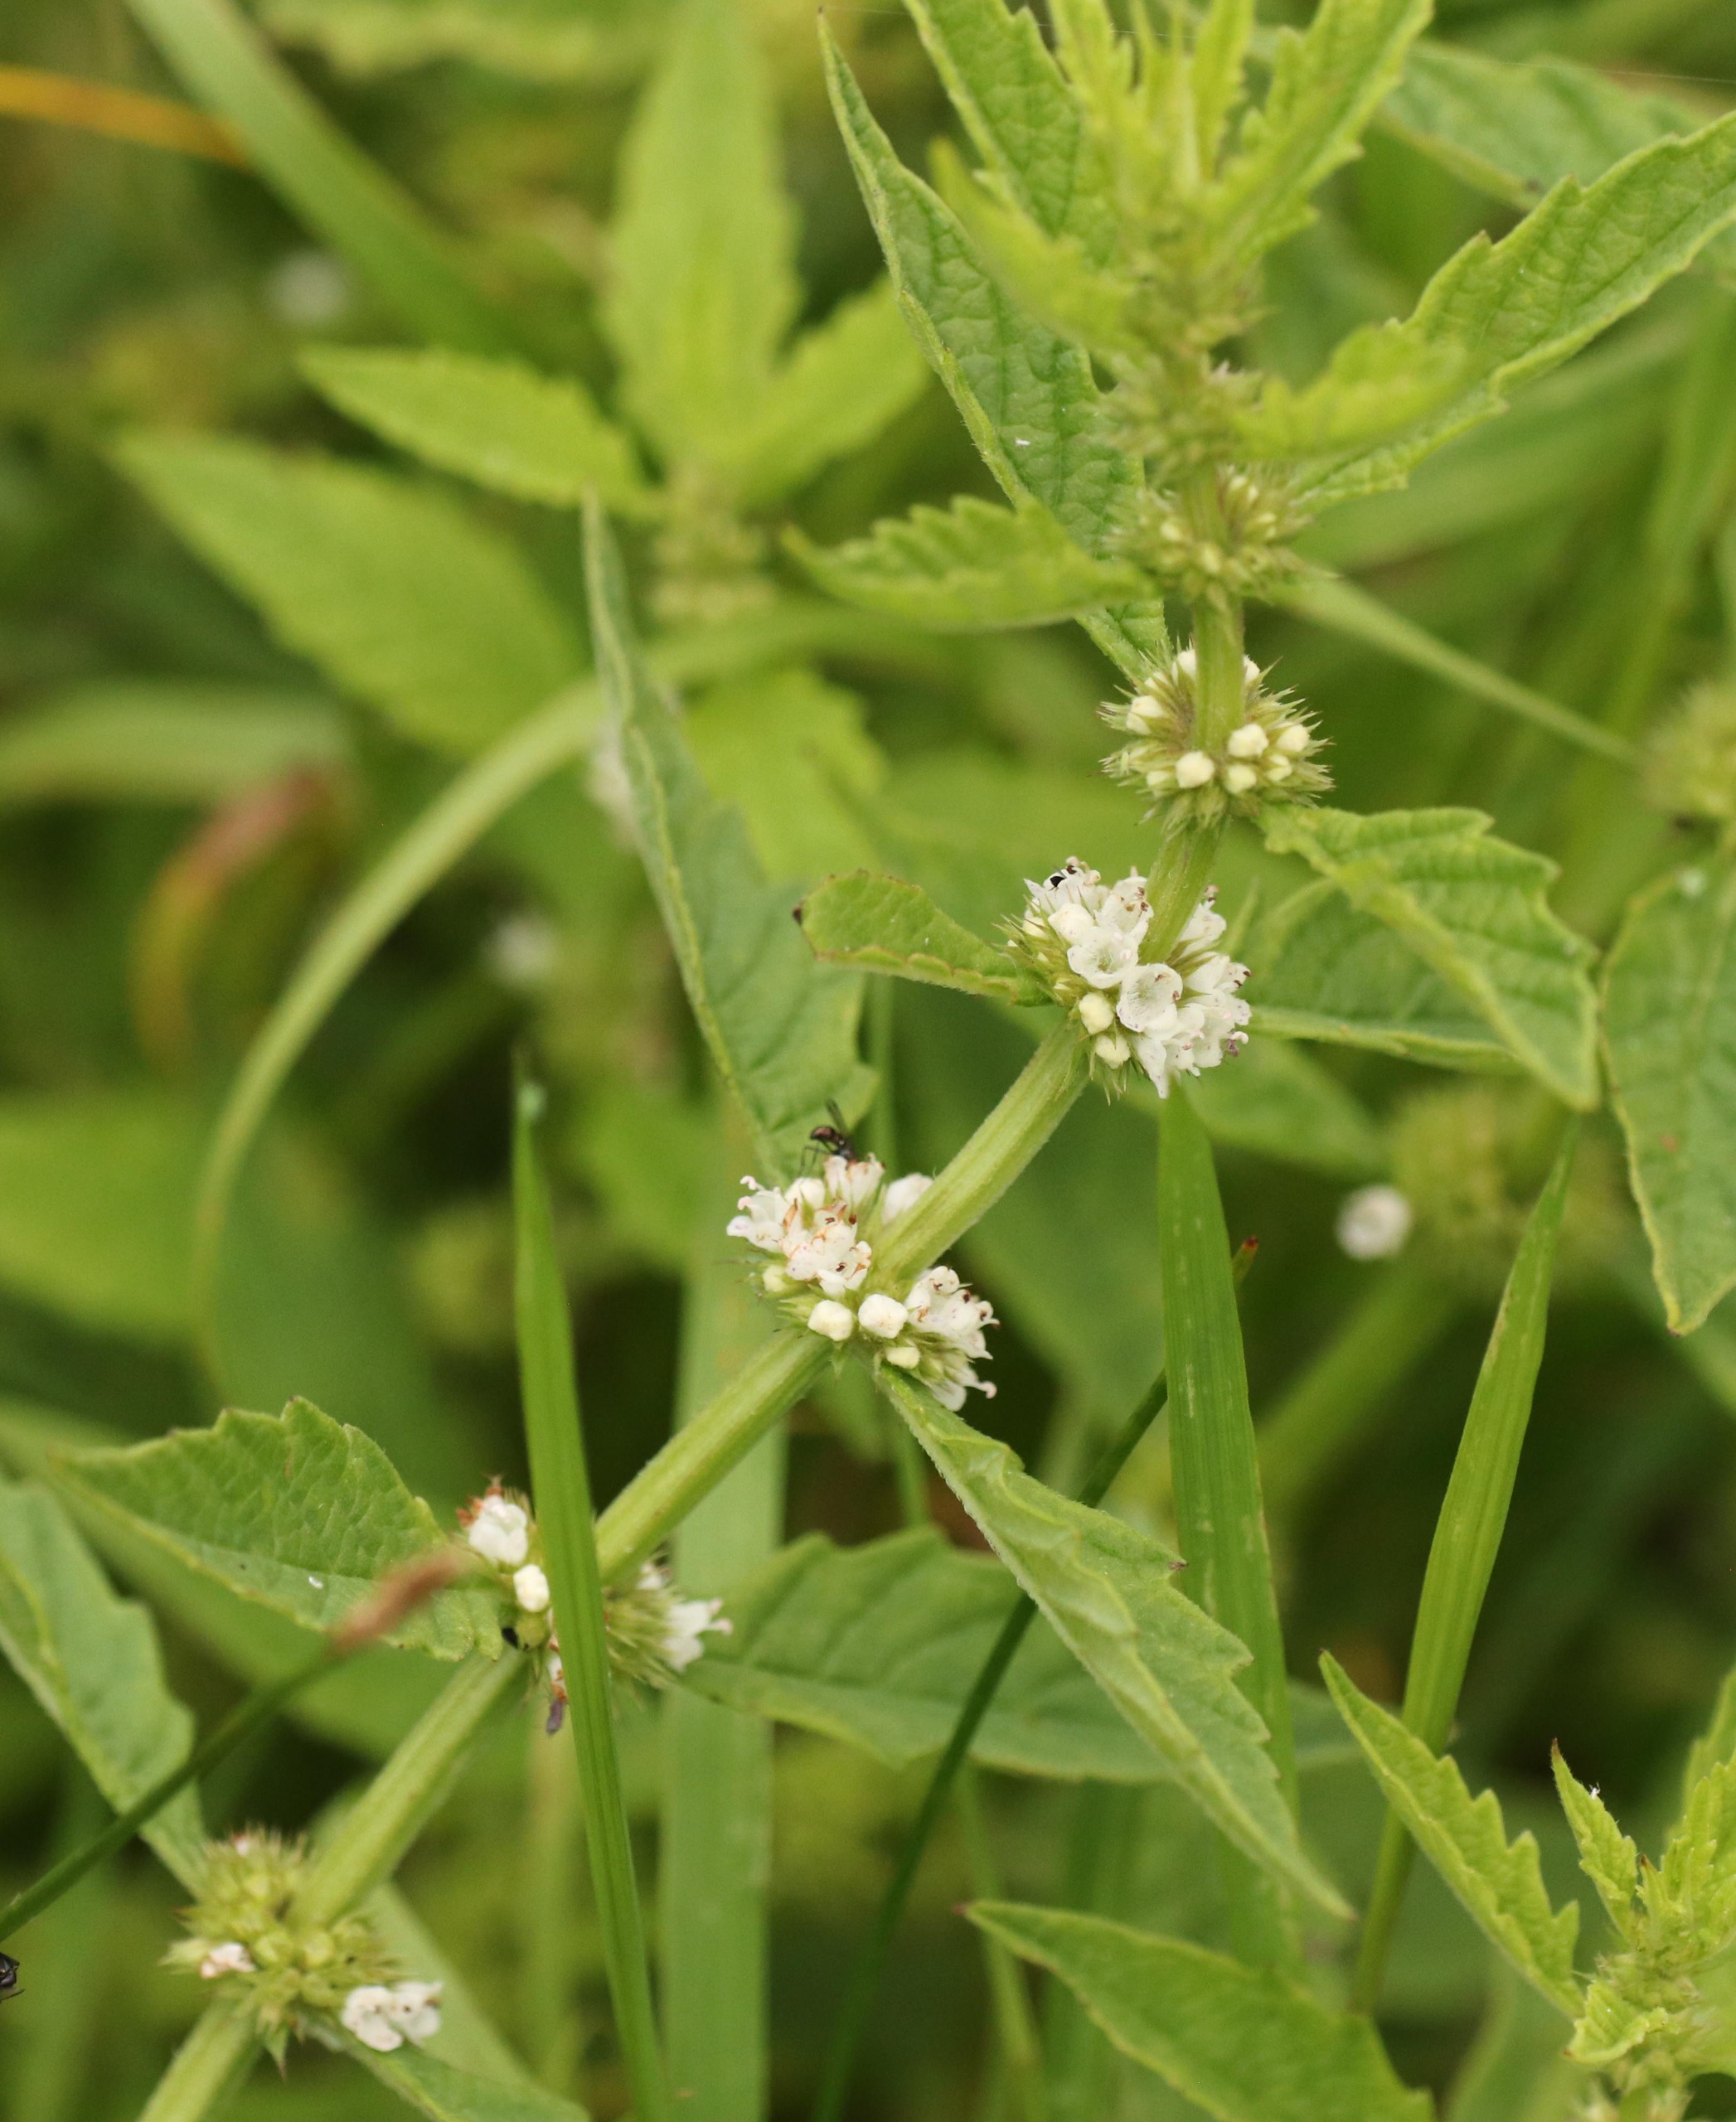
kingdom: Plantae
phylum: Tracheophyta
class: Magnoliopsida
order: Lamiales
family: Lamiaceae
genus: Lycopus
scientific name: Lycopus europaeus
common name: Sværtevæld
